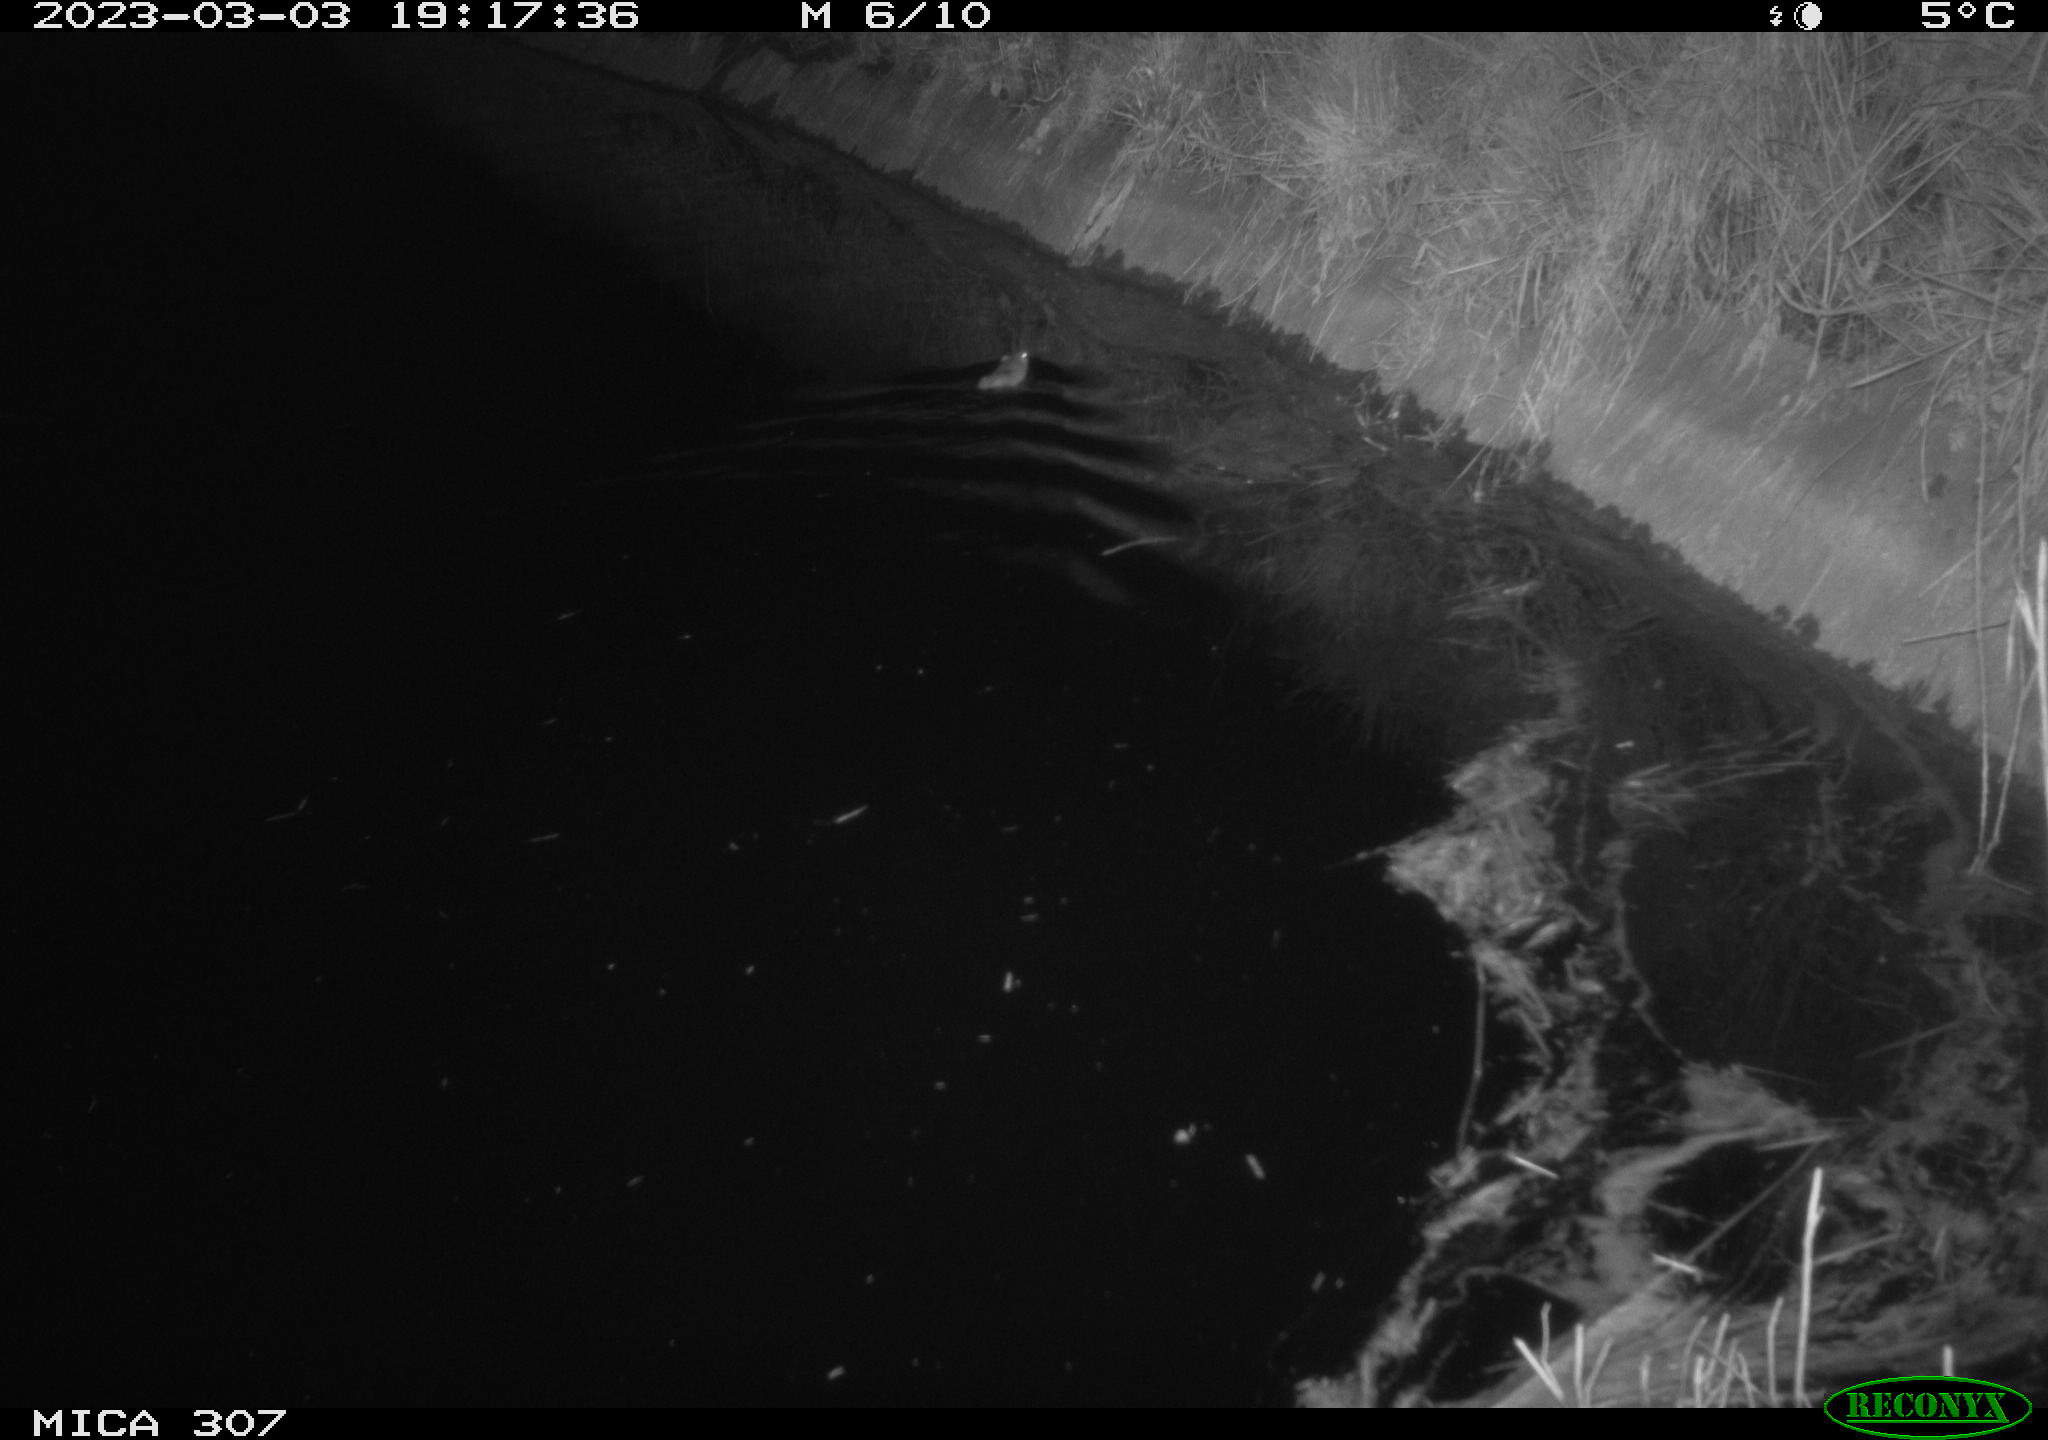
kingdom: Animalia
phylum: Chordata
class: Mammalia
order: Rodentia
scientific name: Rodentia
